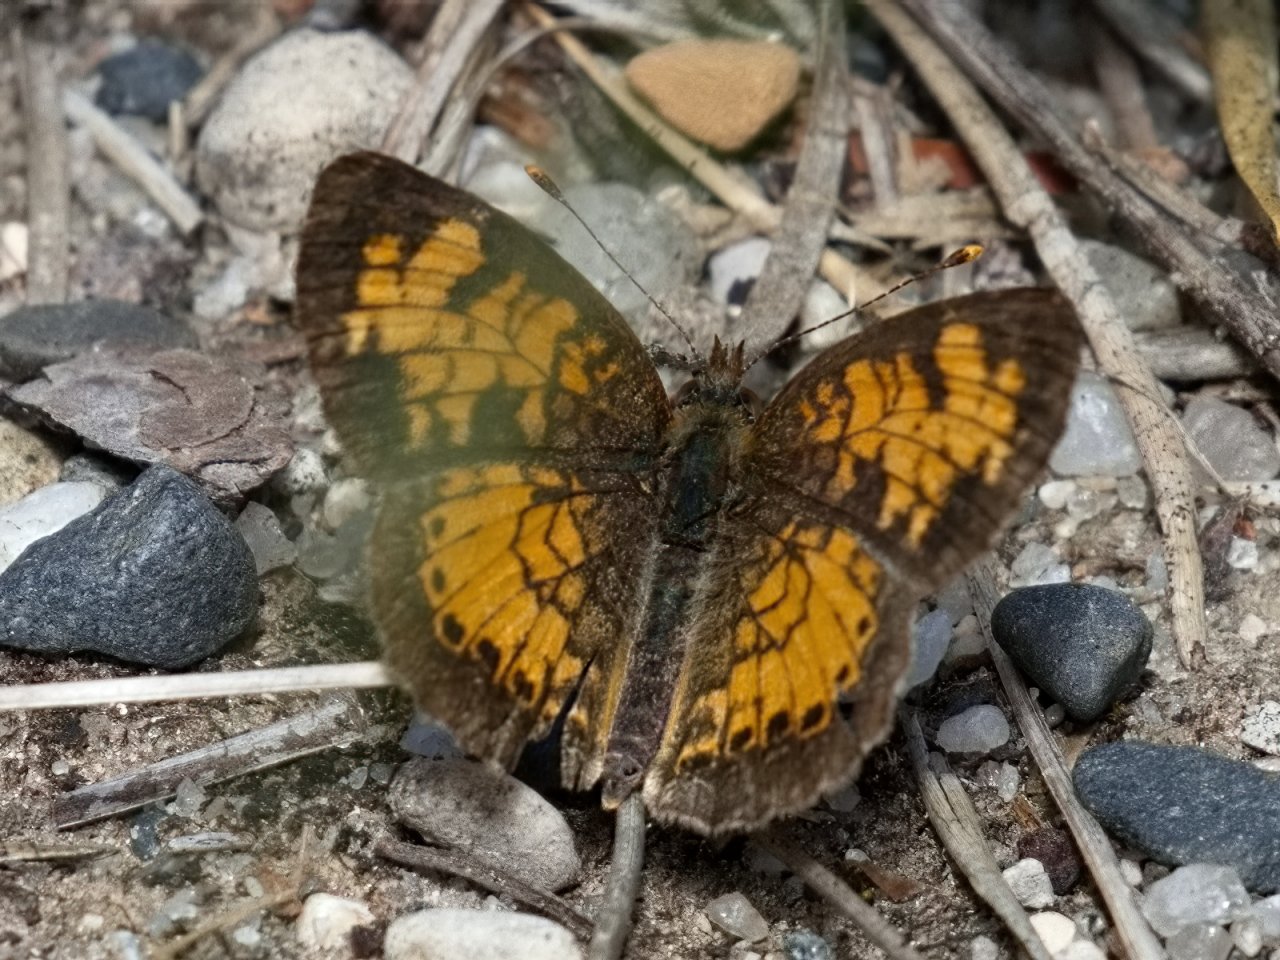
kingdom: Animalia
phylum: Arthropoda
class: Insecta
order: Lepidoptera
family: Nymphalidae
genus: Phyciodes
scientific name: Phyciodes tharos
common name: Northern Crescent
